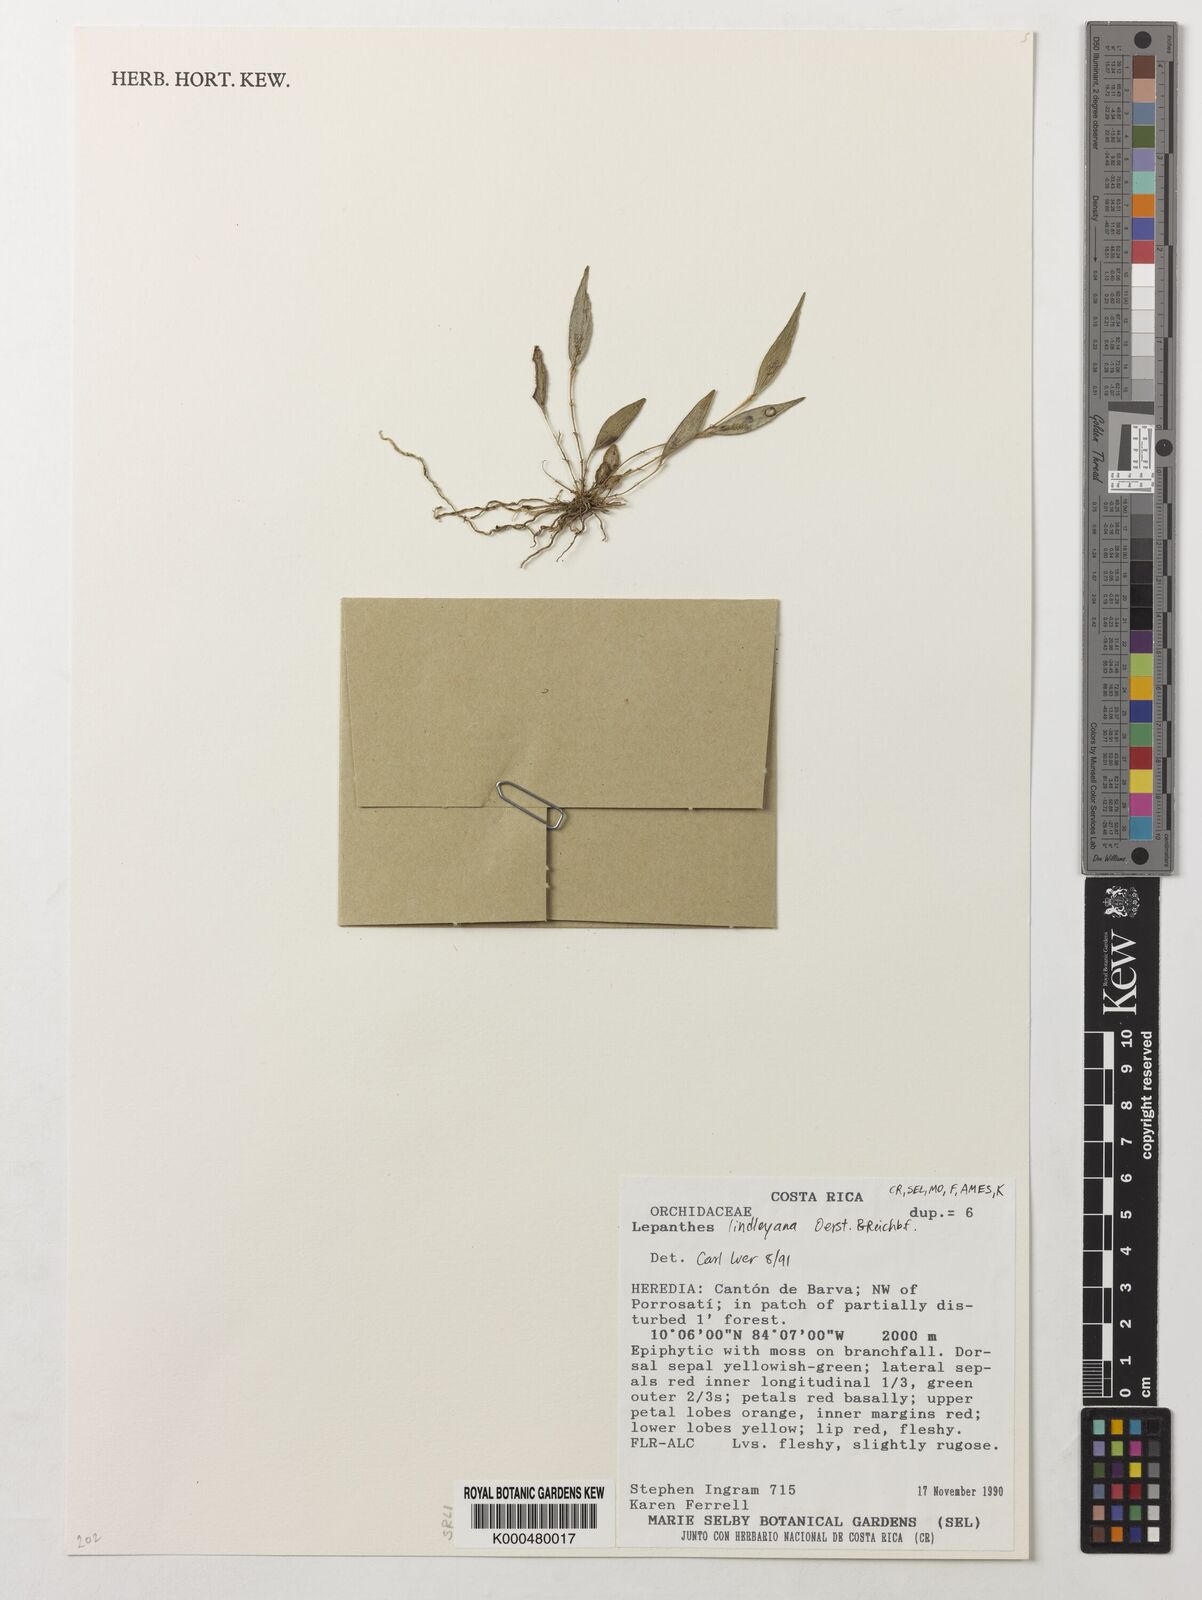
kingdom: Plantae
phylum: Tracheophyta
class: Liliopsida
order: Asparagales
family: Orchidaceae
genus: Lepanthes
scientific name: Lepanthes lindleyana
